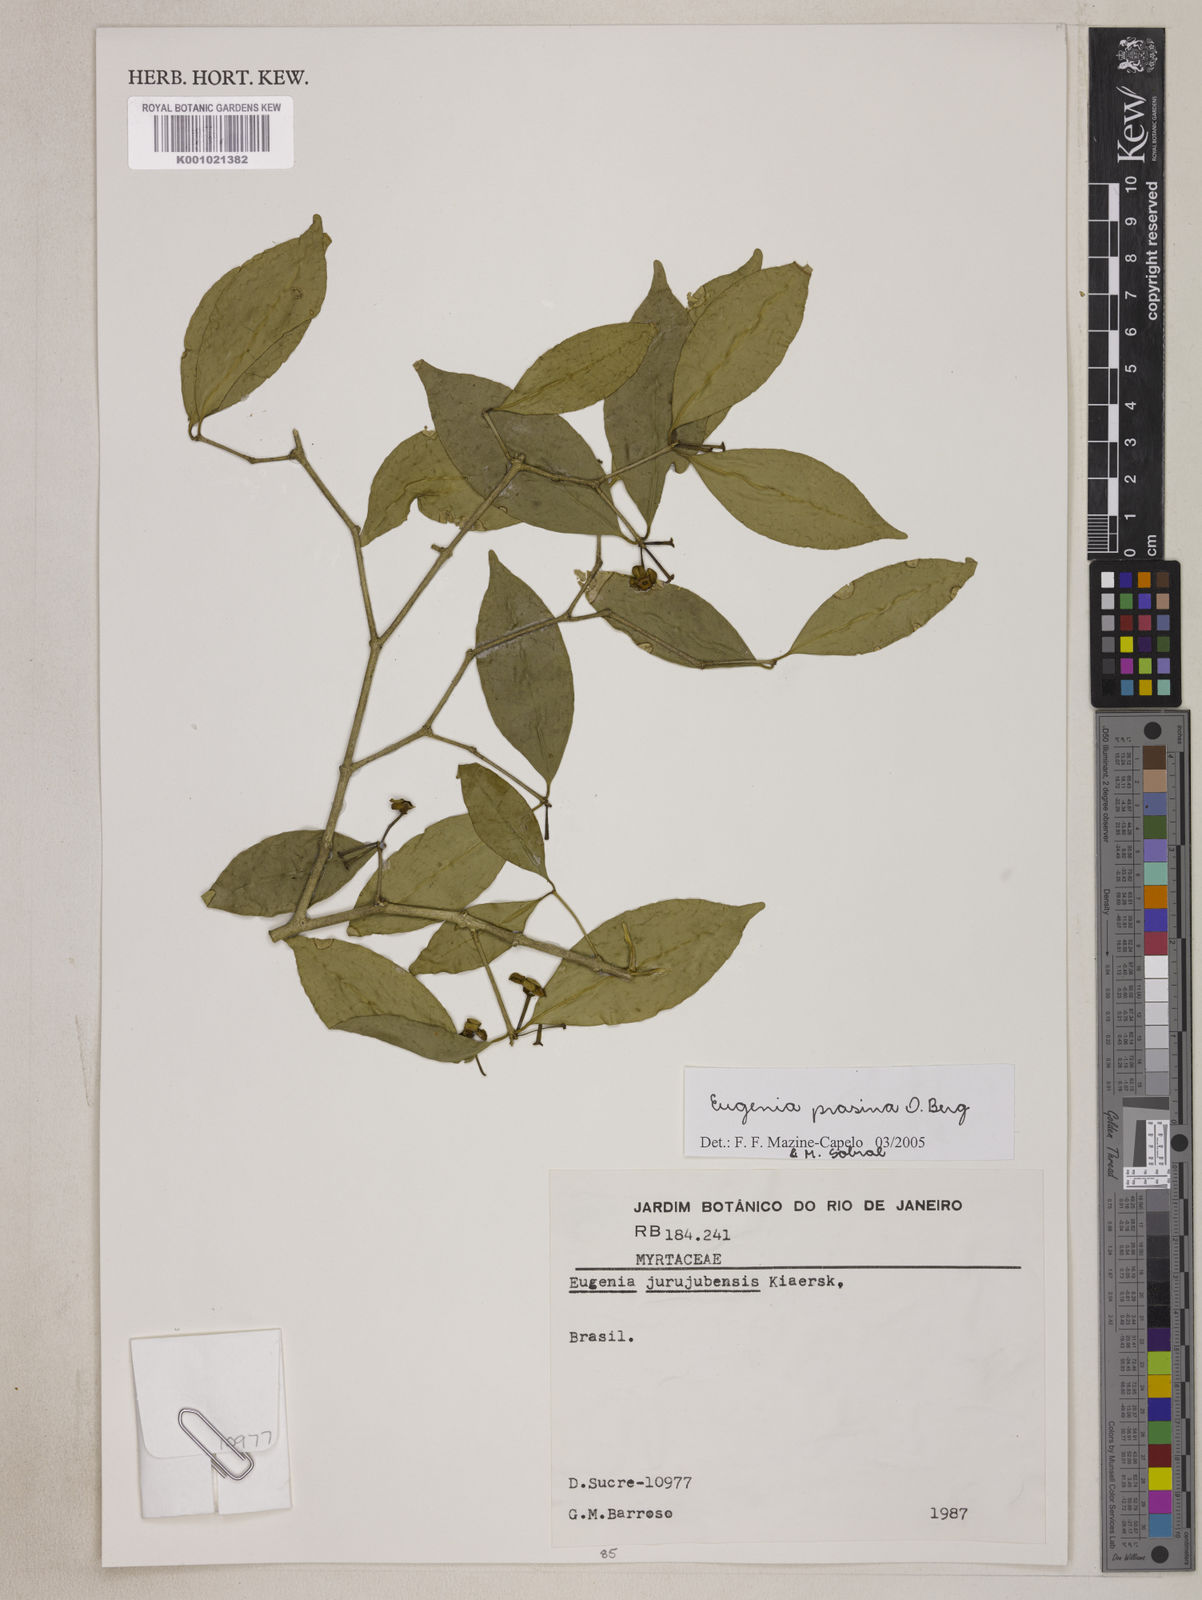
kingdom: Plantae
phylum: Tracheophyta
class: Magnoliopsida
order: Myrtales
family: Myrtaceae
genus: Eugenia
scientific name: Eugenia prasina
